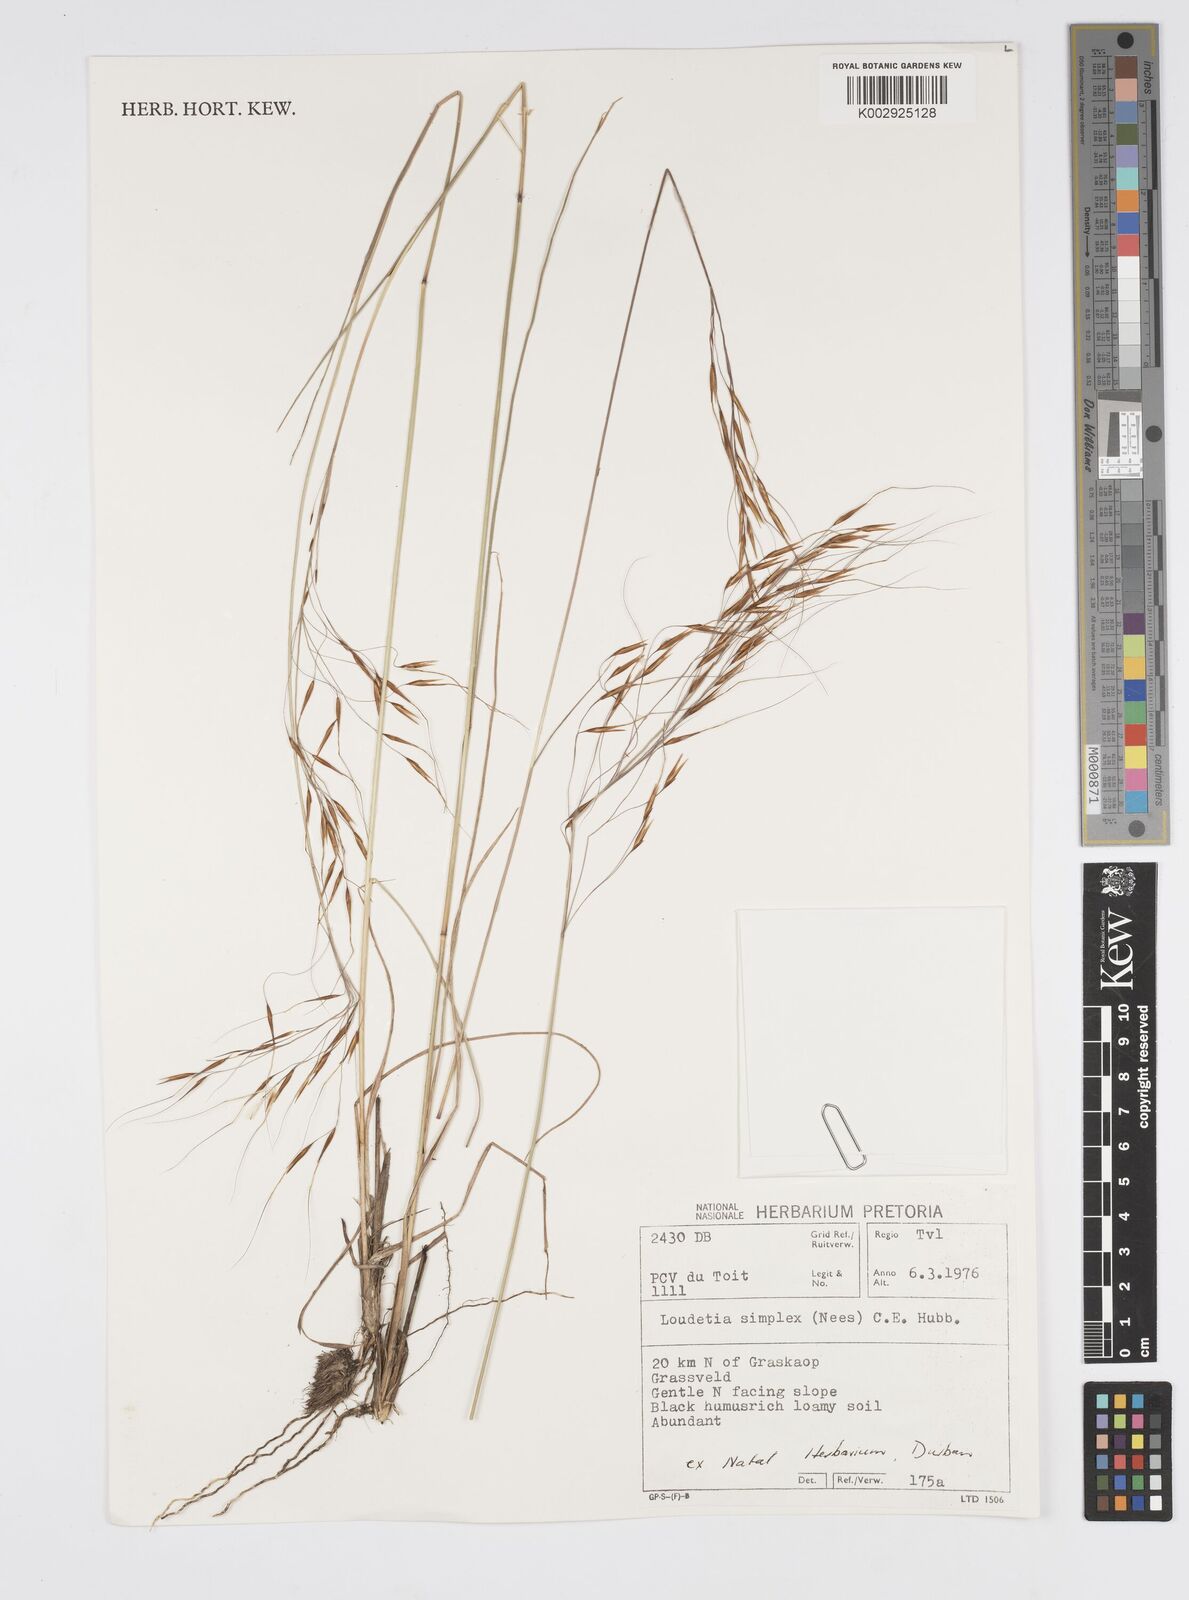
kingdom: Plantae
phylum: Tracheophyta
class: Liliopsida
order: Poales
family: Poaceae
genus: Loudetia
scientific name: Loudetia simplex
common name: Common russet grass
